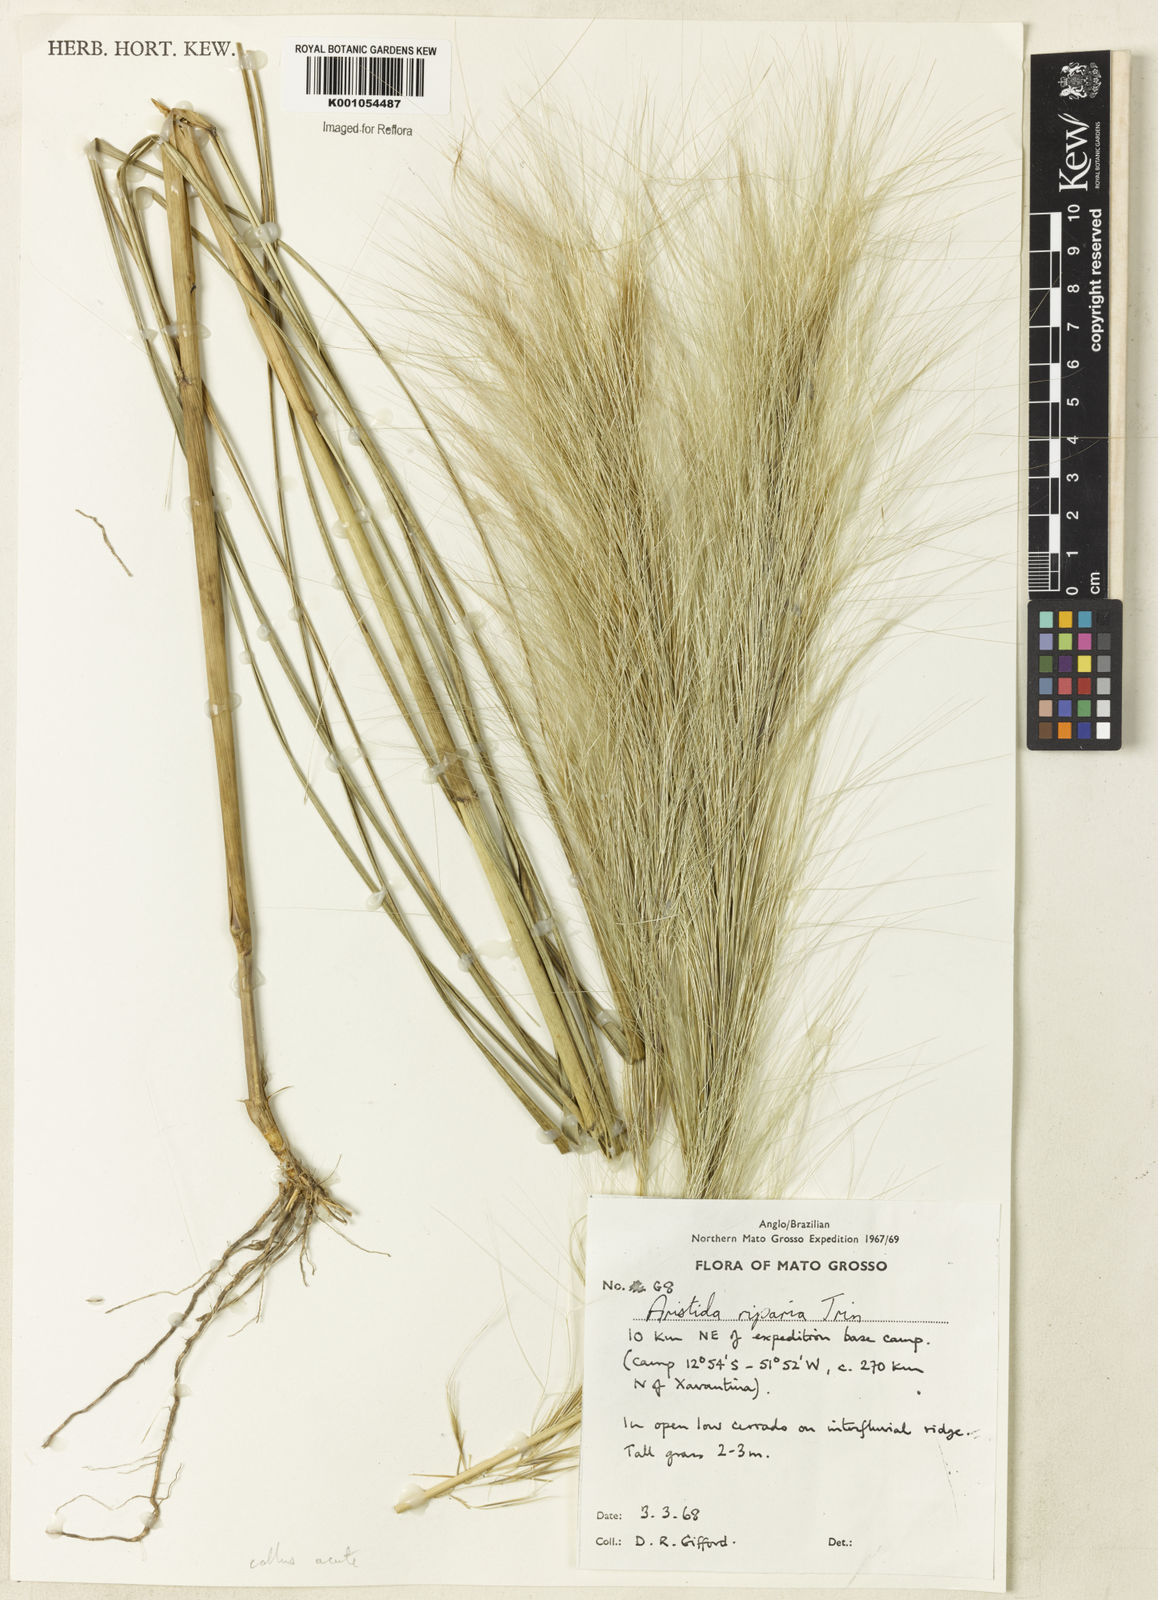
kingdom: Plantae
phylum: Tracheophyta
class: Liliopsida
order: Poales
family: Poaceae
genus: Aristida
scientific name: Aristida riparia
